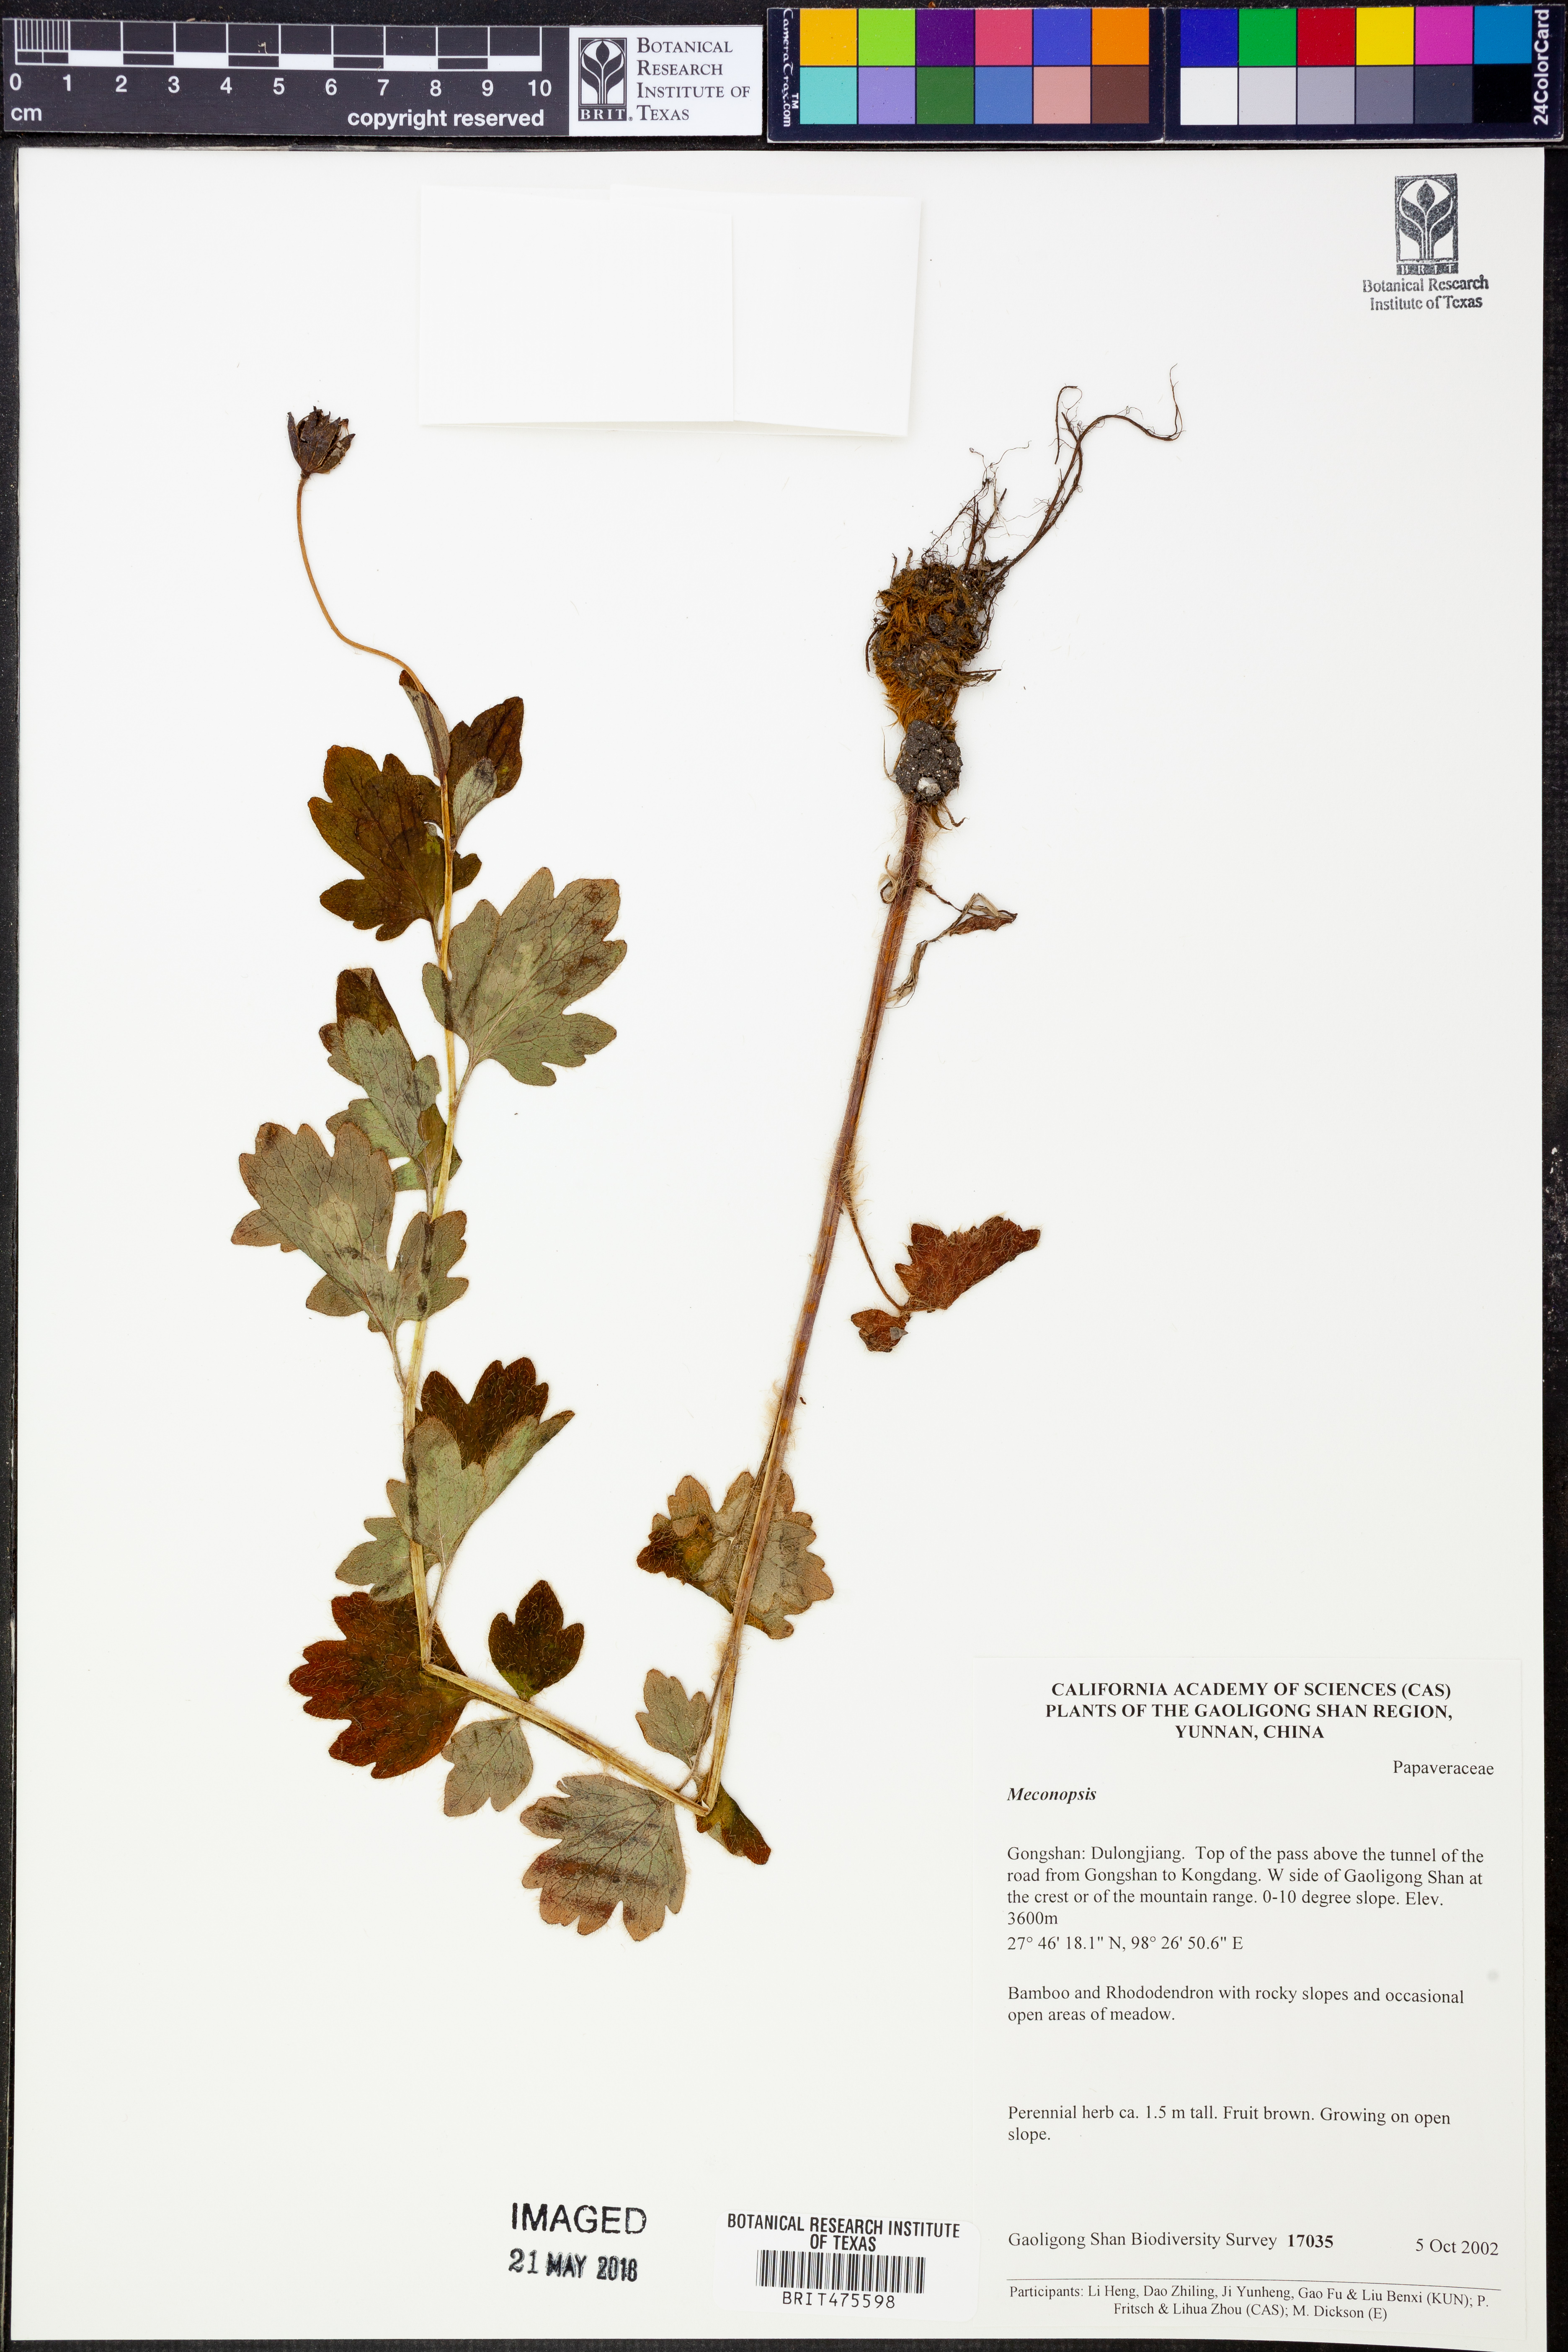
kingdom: Plantae
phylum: Tracheophyta
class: Magnoliopsida
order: Ranunculales
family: Papaveraceae
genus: Meconopsis
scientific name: Meconopsis
